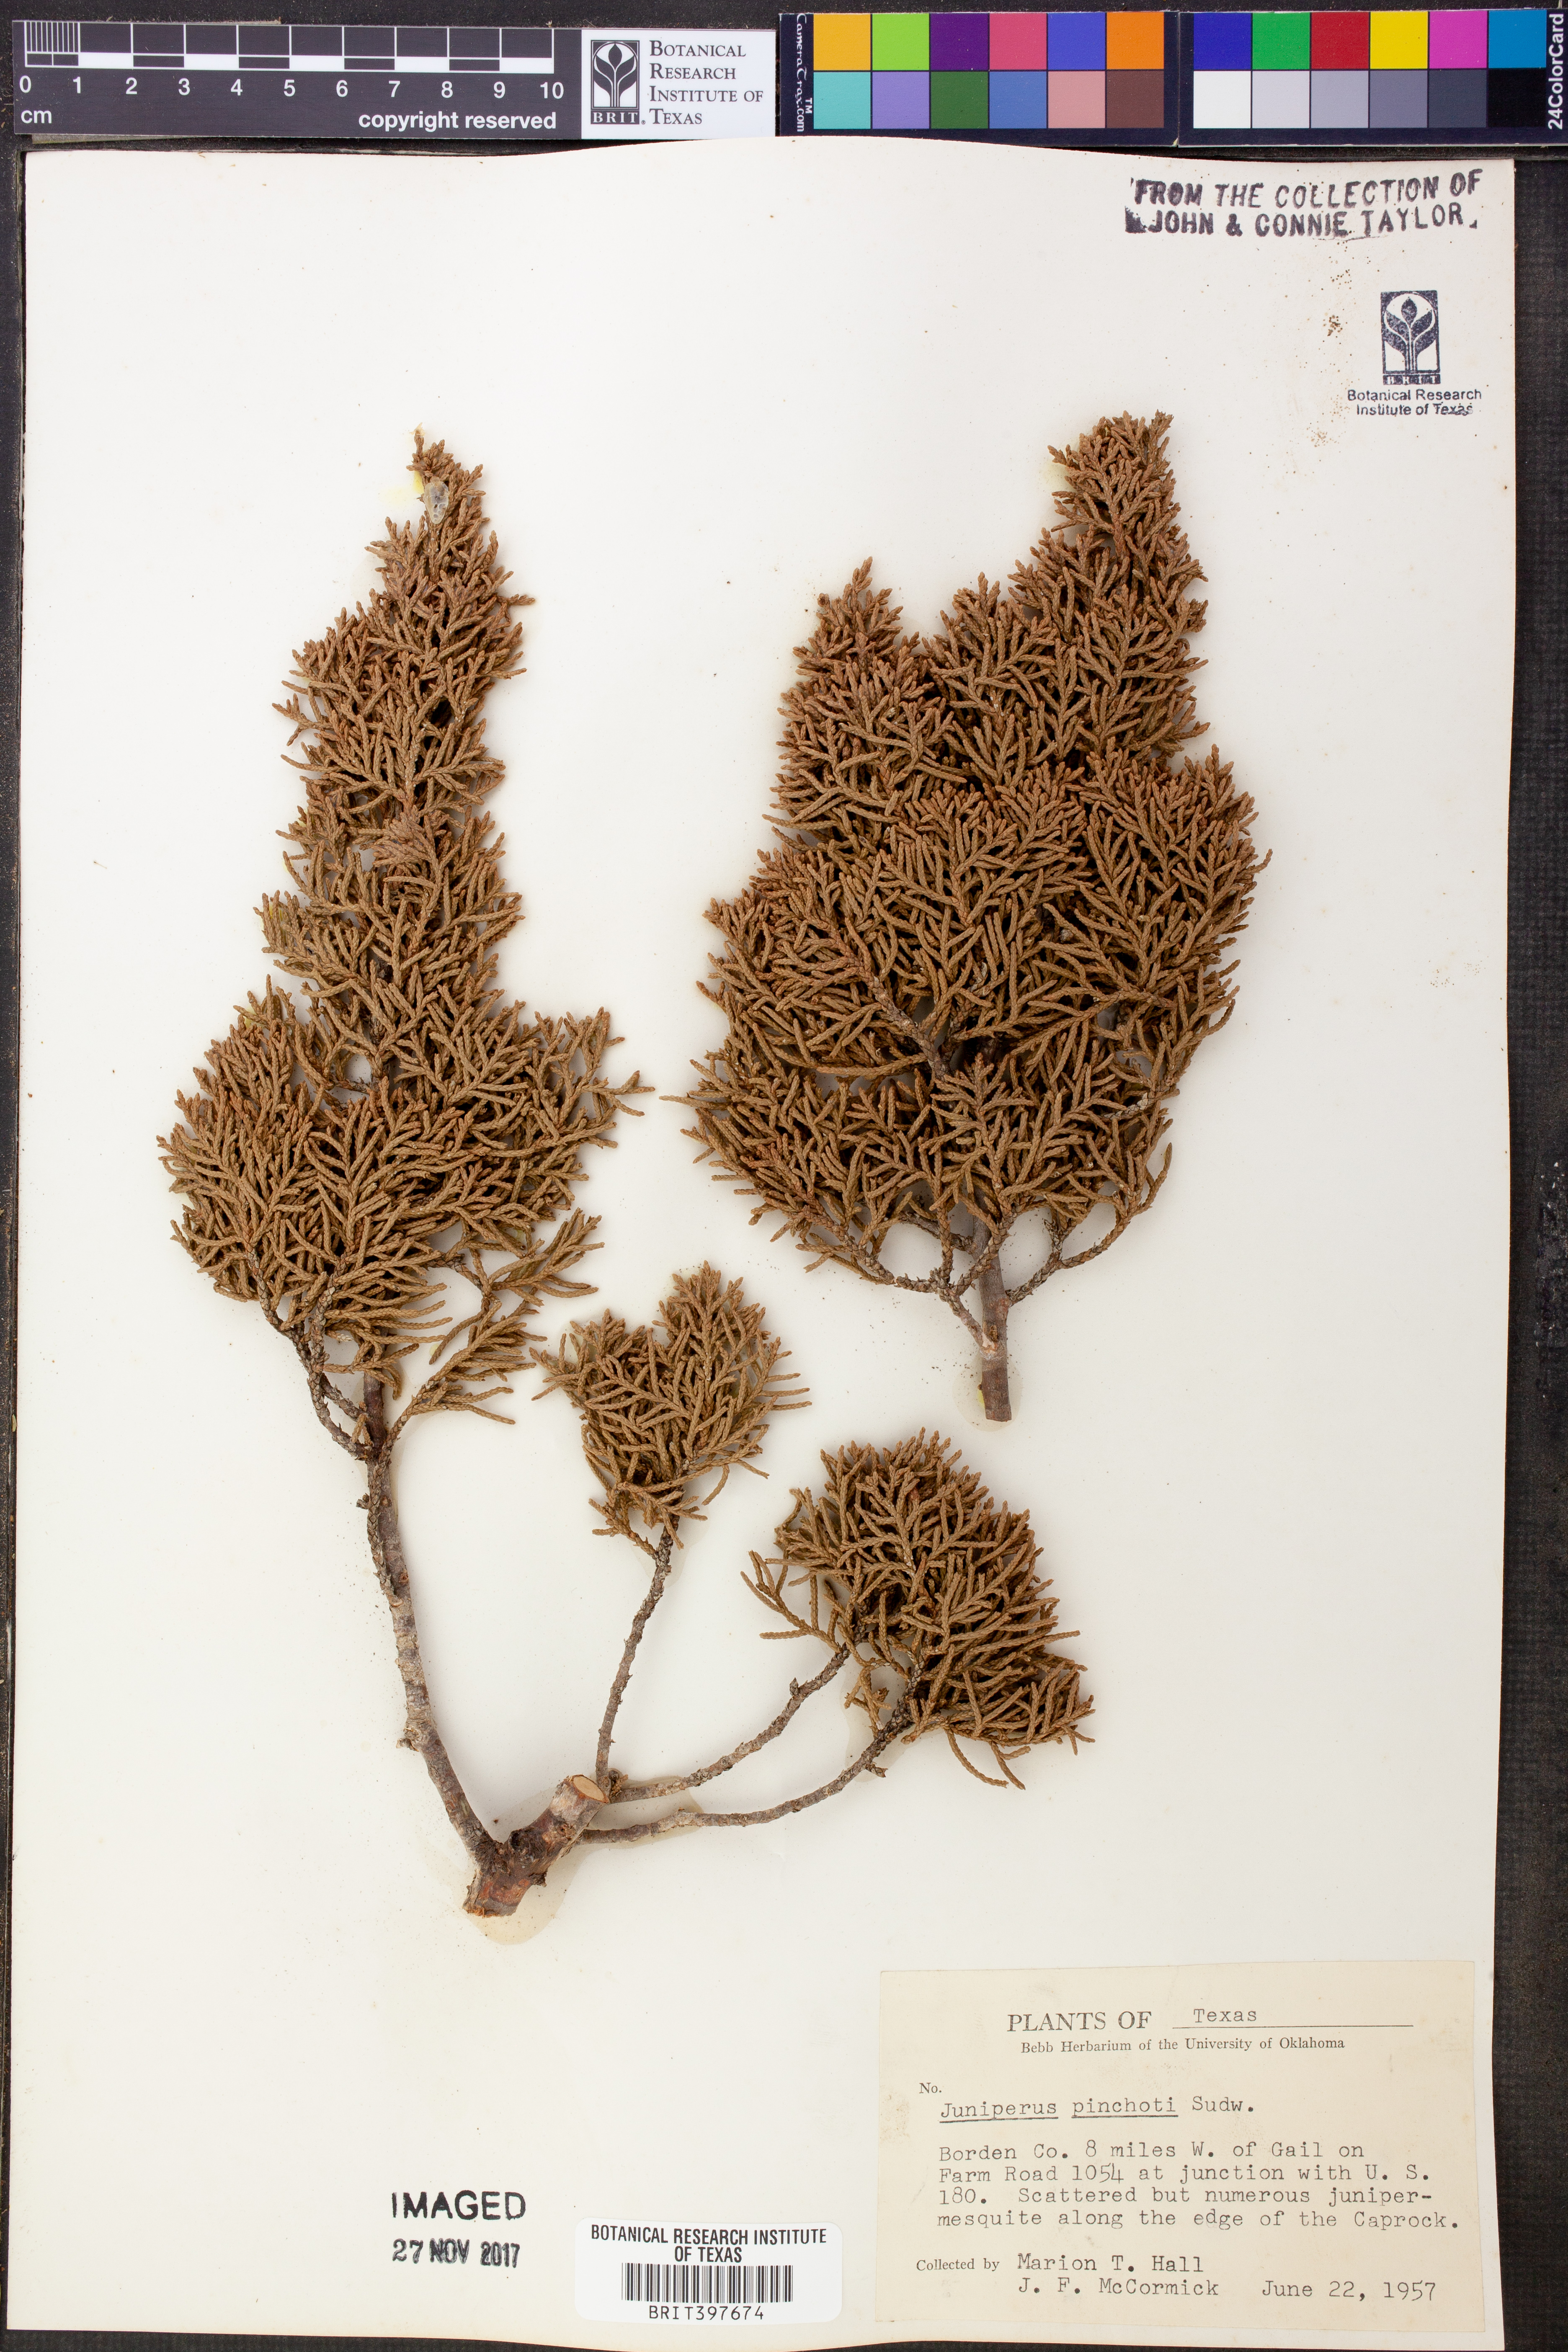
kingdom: Plantae
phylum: Tracheophyta
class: Pinopsida
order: Pinales
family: Cupressaceae
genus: Juniperus
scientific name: Juniperus pinchotii
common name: Pinchot juniper
